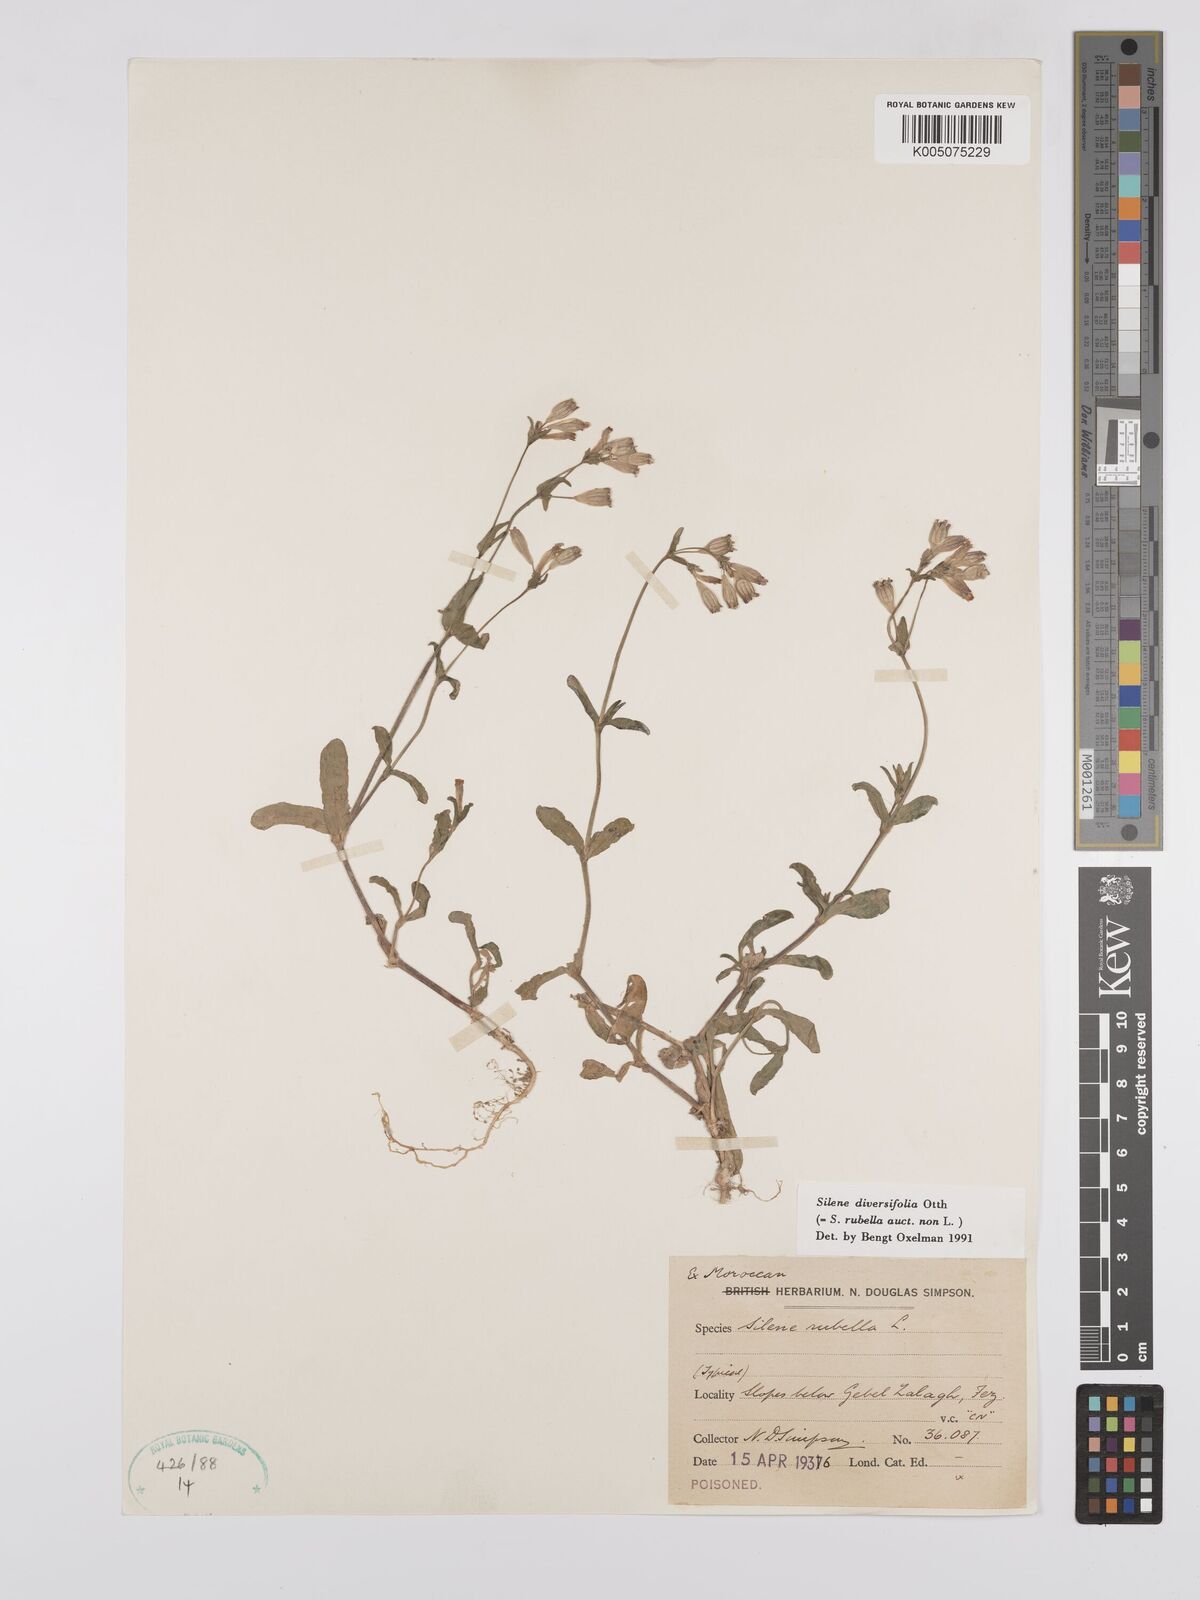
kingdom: Plantae
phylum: Tracheophyta
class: Magnoliopsida
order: Caryophyllales
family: Caryophyllaceae
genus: Silene
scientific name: Silene rubella
